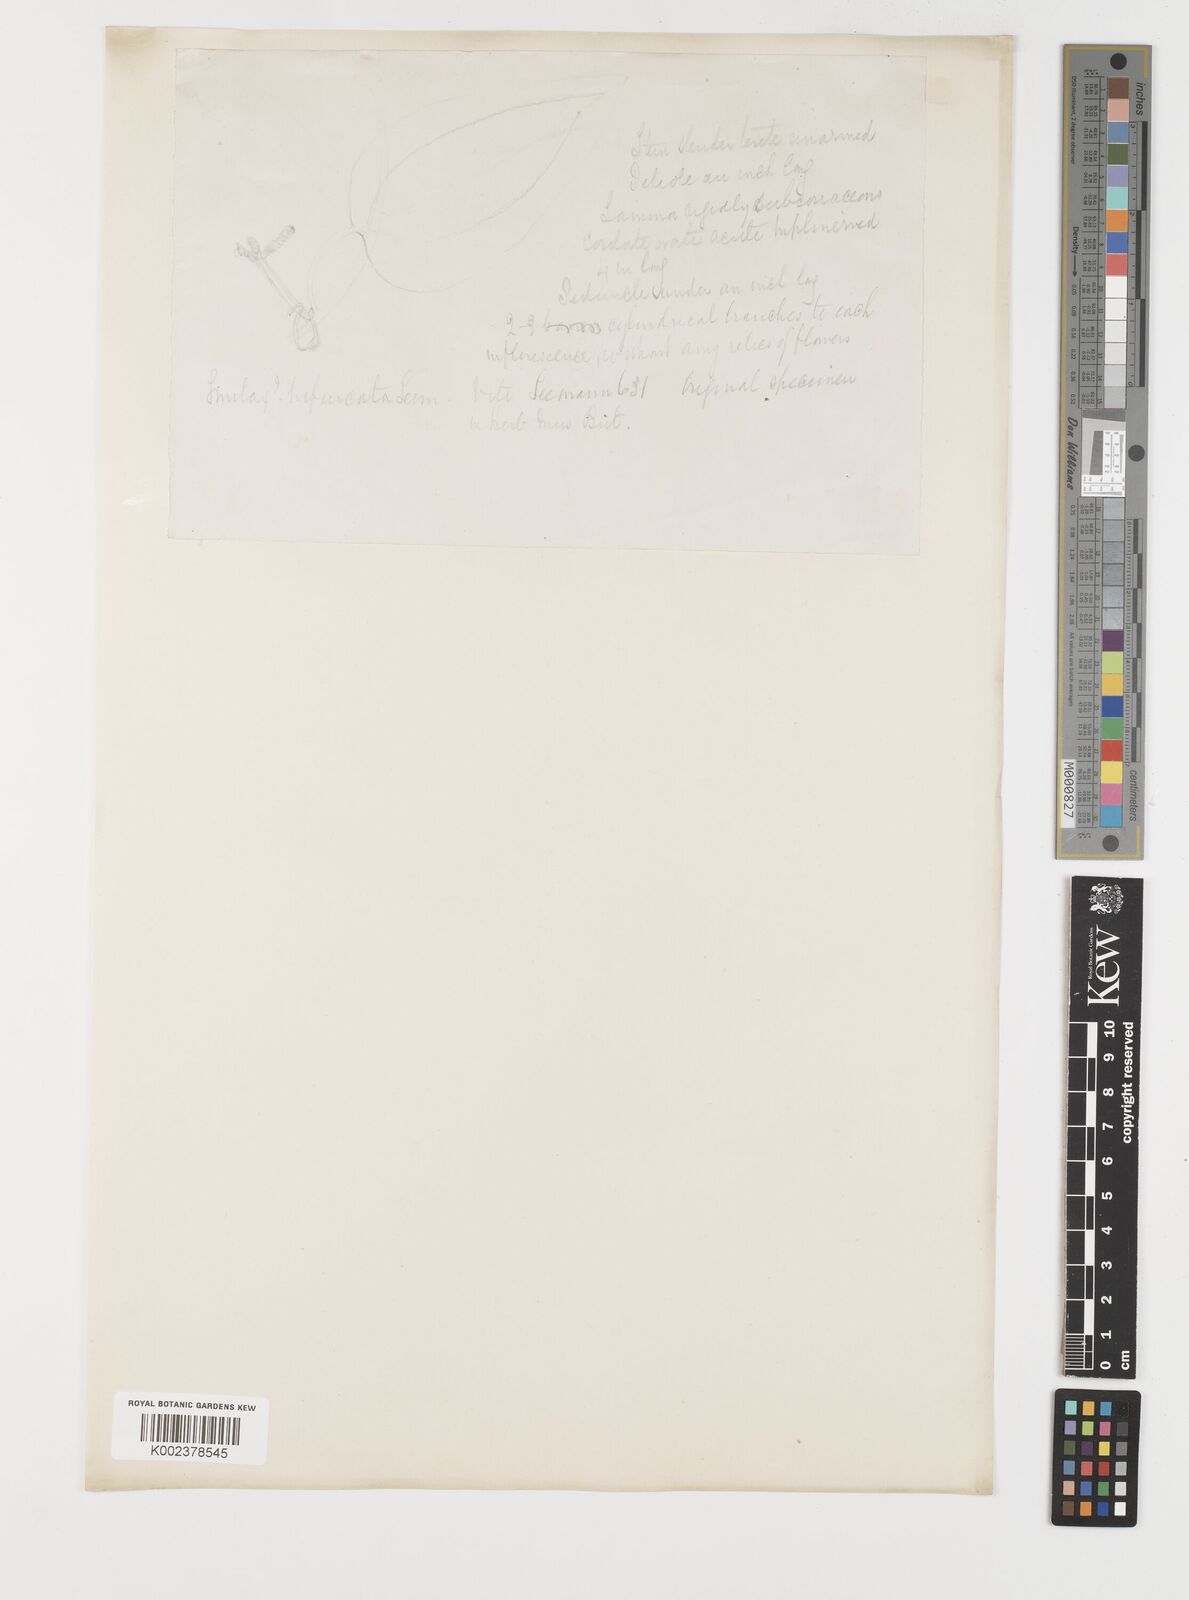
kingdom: Plantae
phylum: Tracheophyta
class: Liliopsida
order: Liliales
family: Smilacaceae
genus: Smilax
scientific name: Smilax vitiensis
